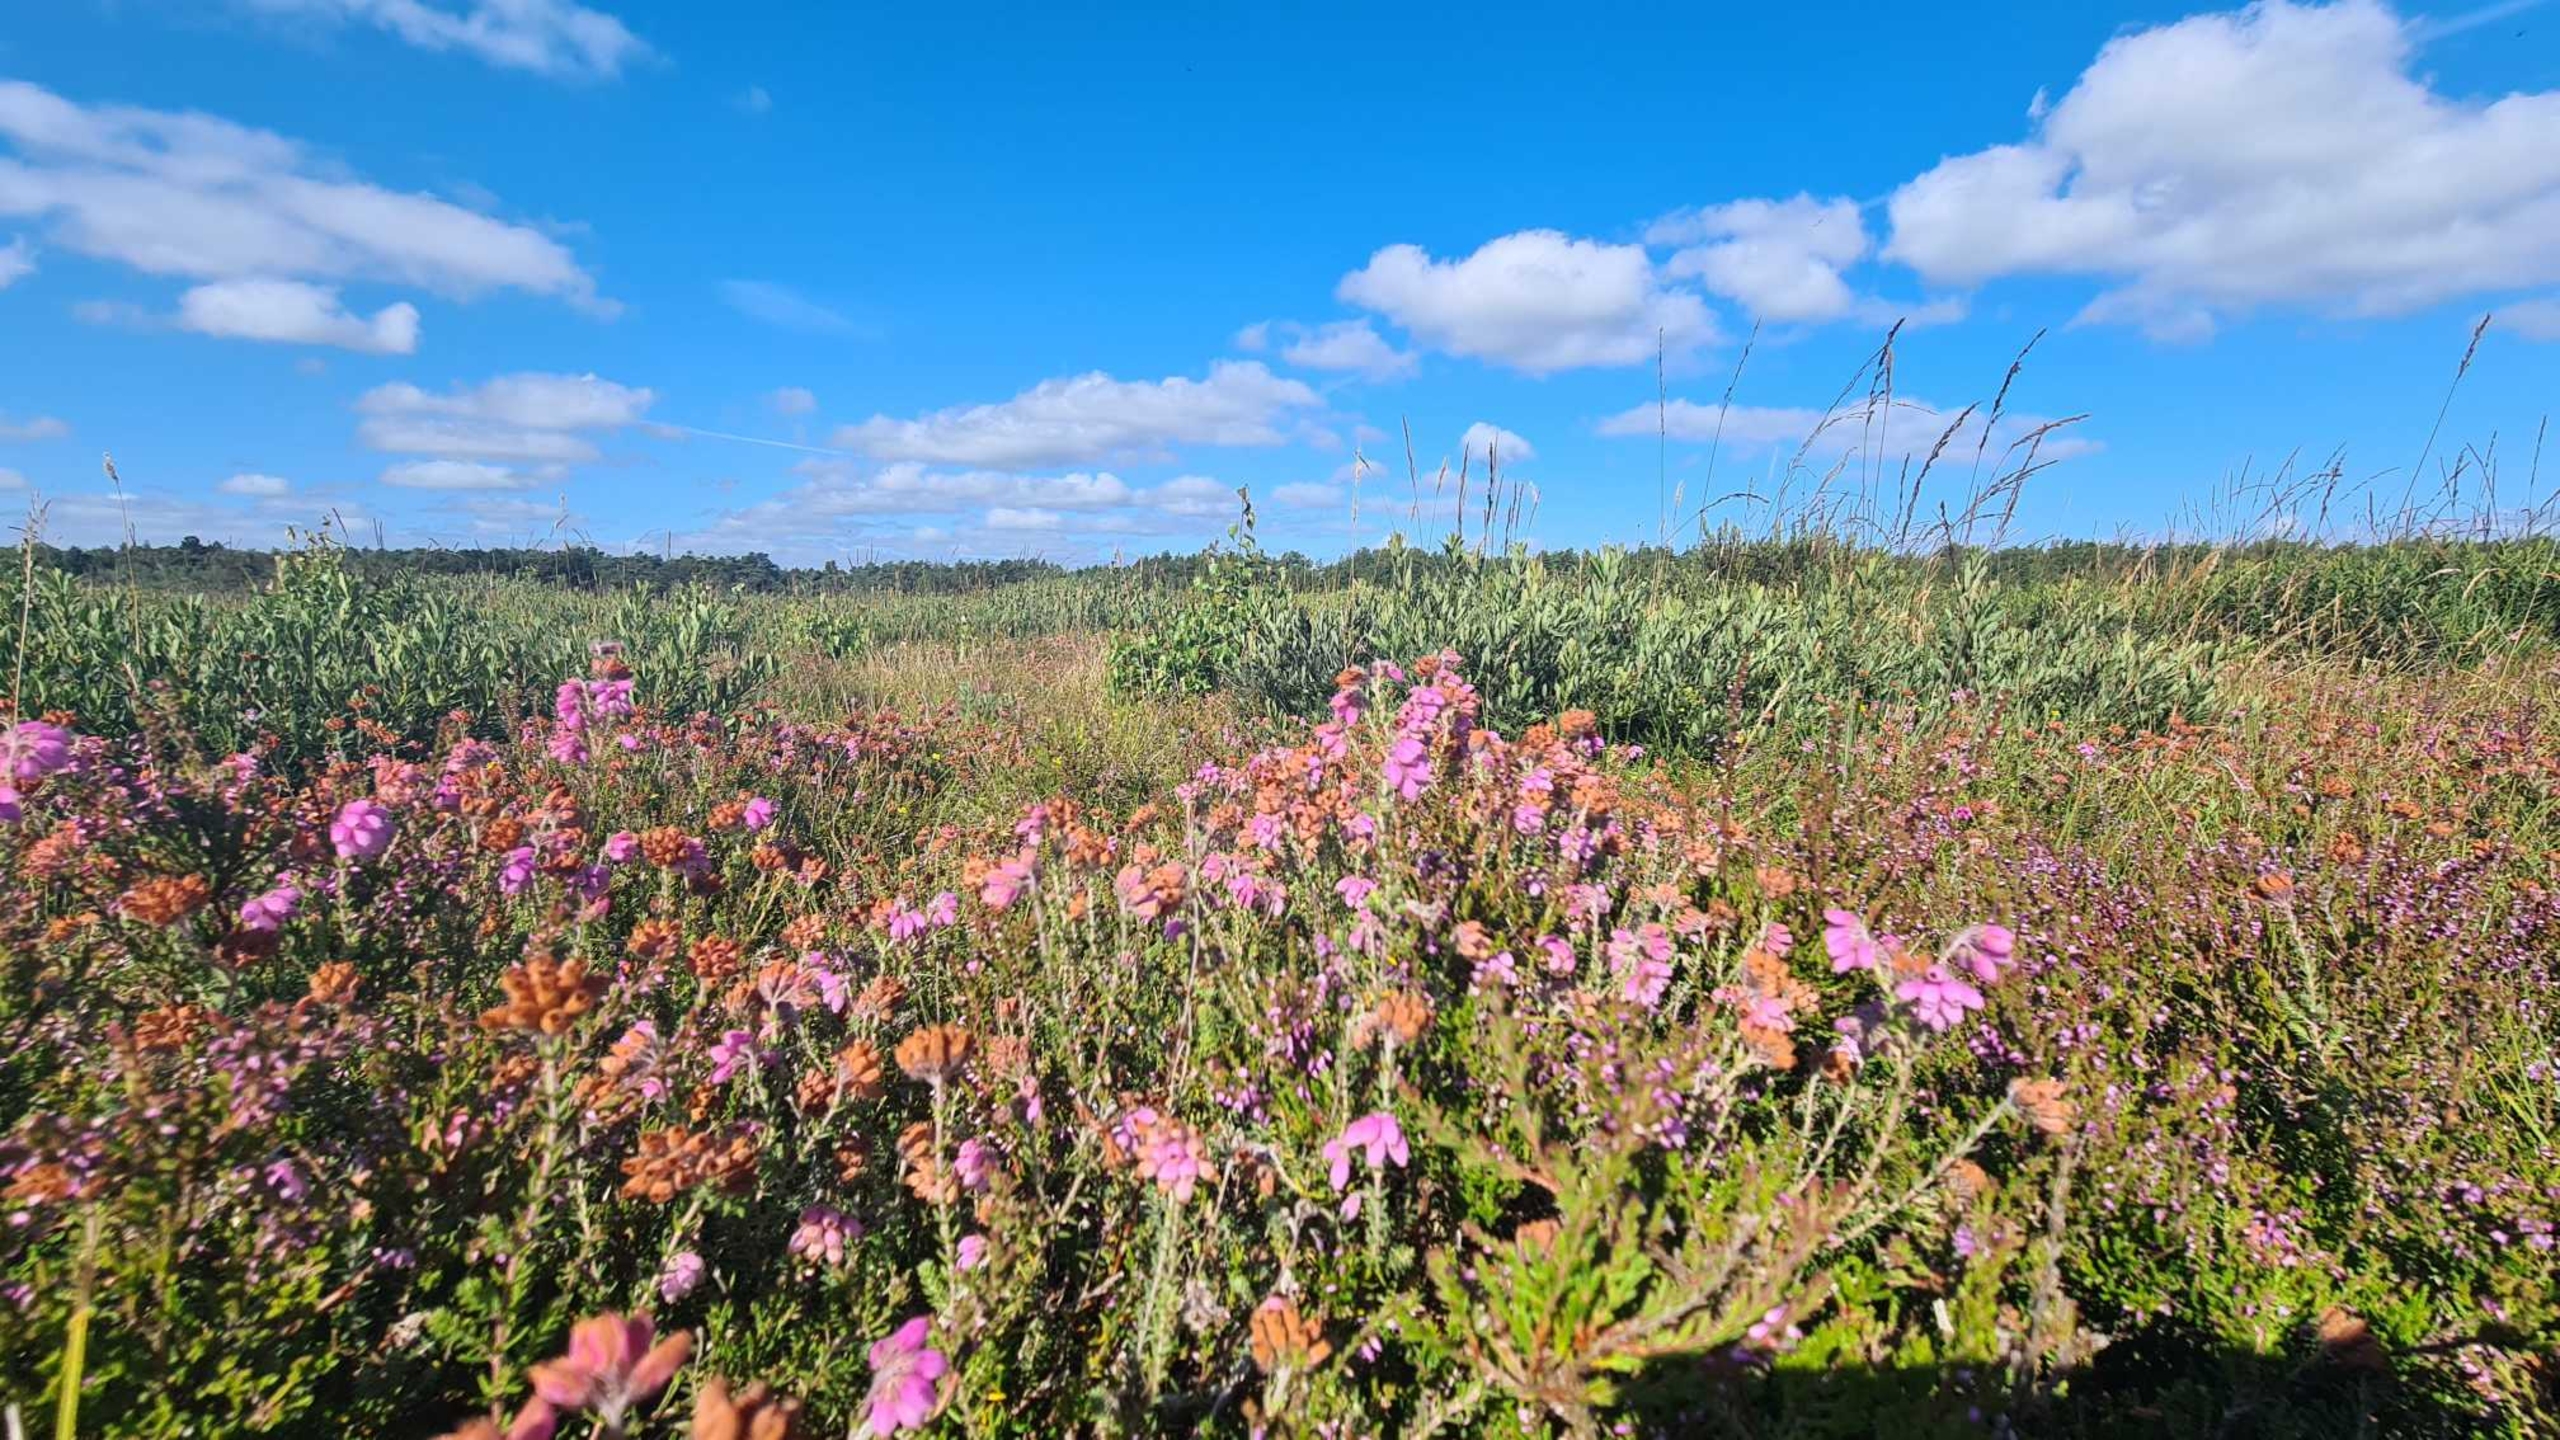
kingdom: Plantae
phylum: Tracheophyta
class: Magnoliopsida
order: Ericales
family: Ericaceae
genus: Erica
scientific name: Erica tetralix
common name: Klokkelyng
